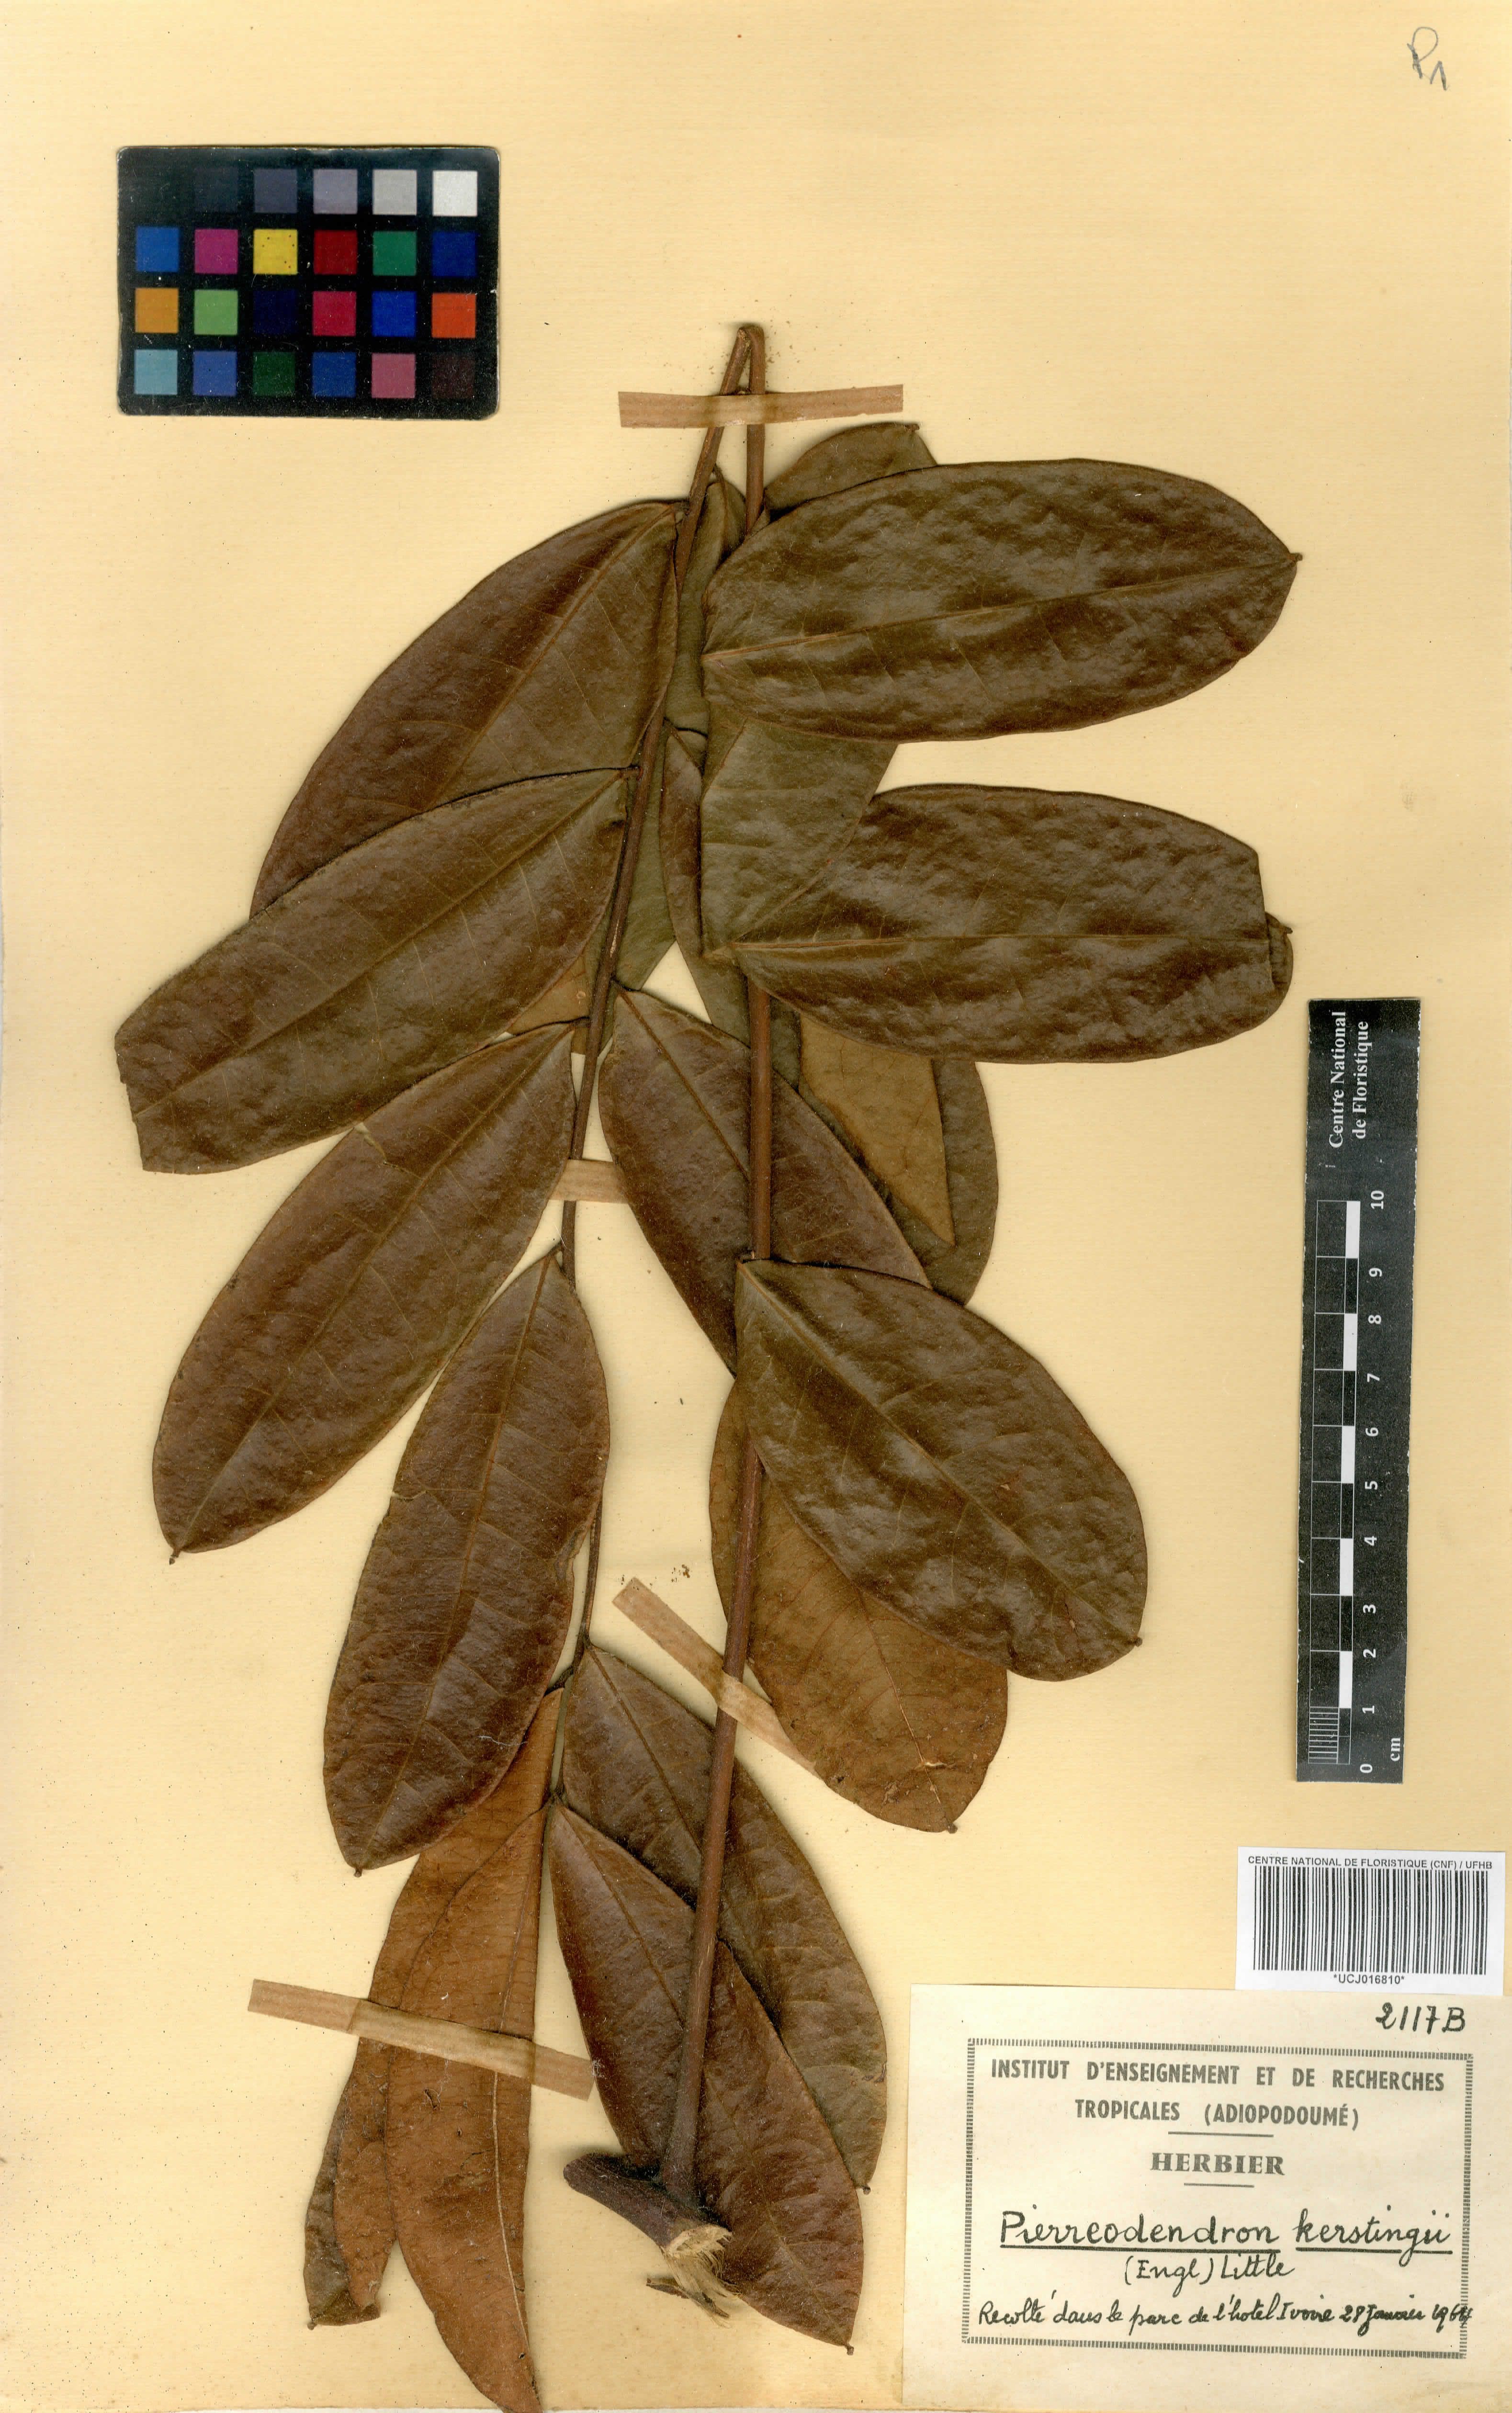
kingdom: Plantae
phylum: Tracheophyta
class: Magnoliopsida
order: Sapindales
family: Simaroubaceae
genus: Pierreodendron
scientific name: Pierreodendron kerstingii
